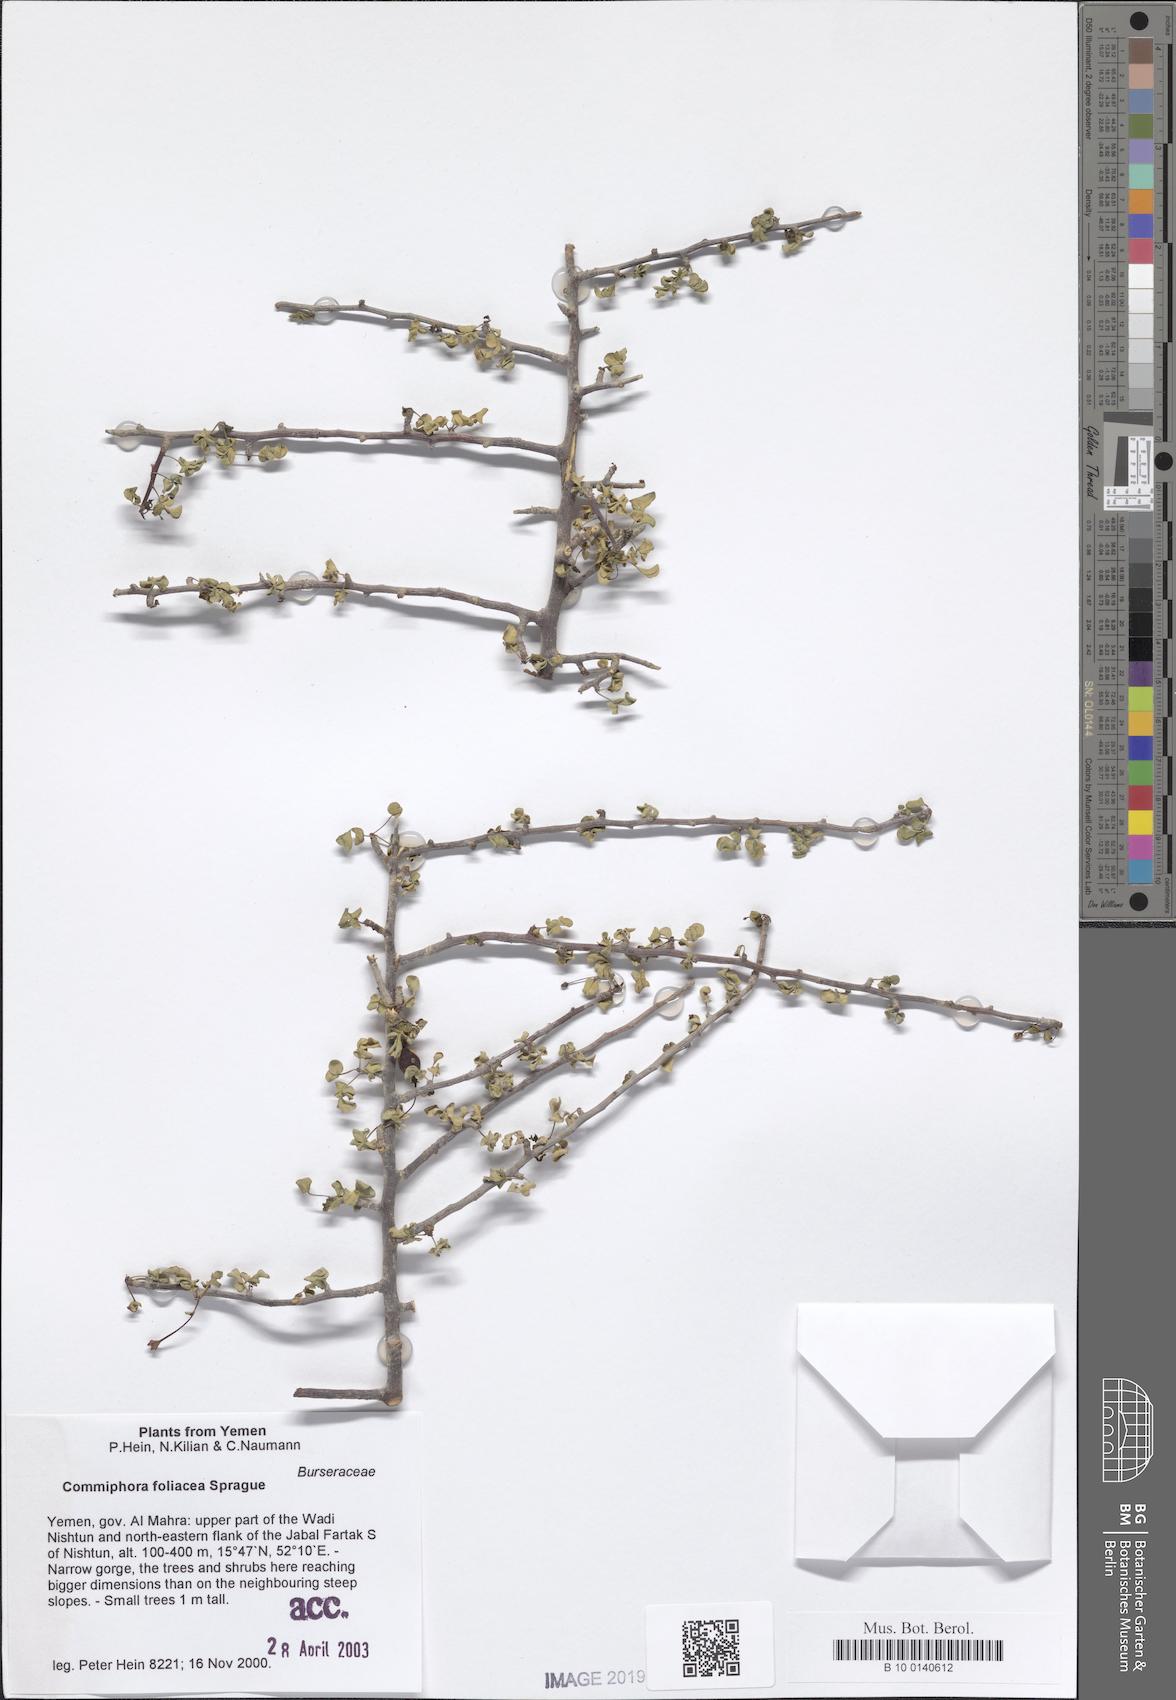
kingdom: Plantae
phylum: Tracheophyta
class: Magnoliopsida
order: Sapindales
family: Burseraceae
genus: Commiphora
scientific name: Commiphora foliacea
